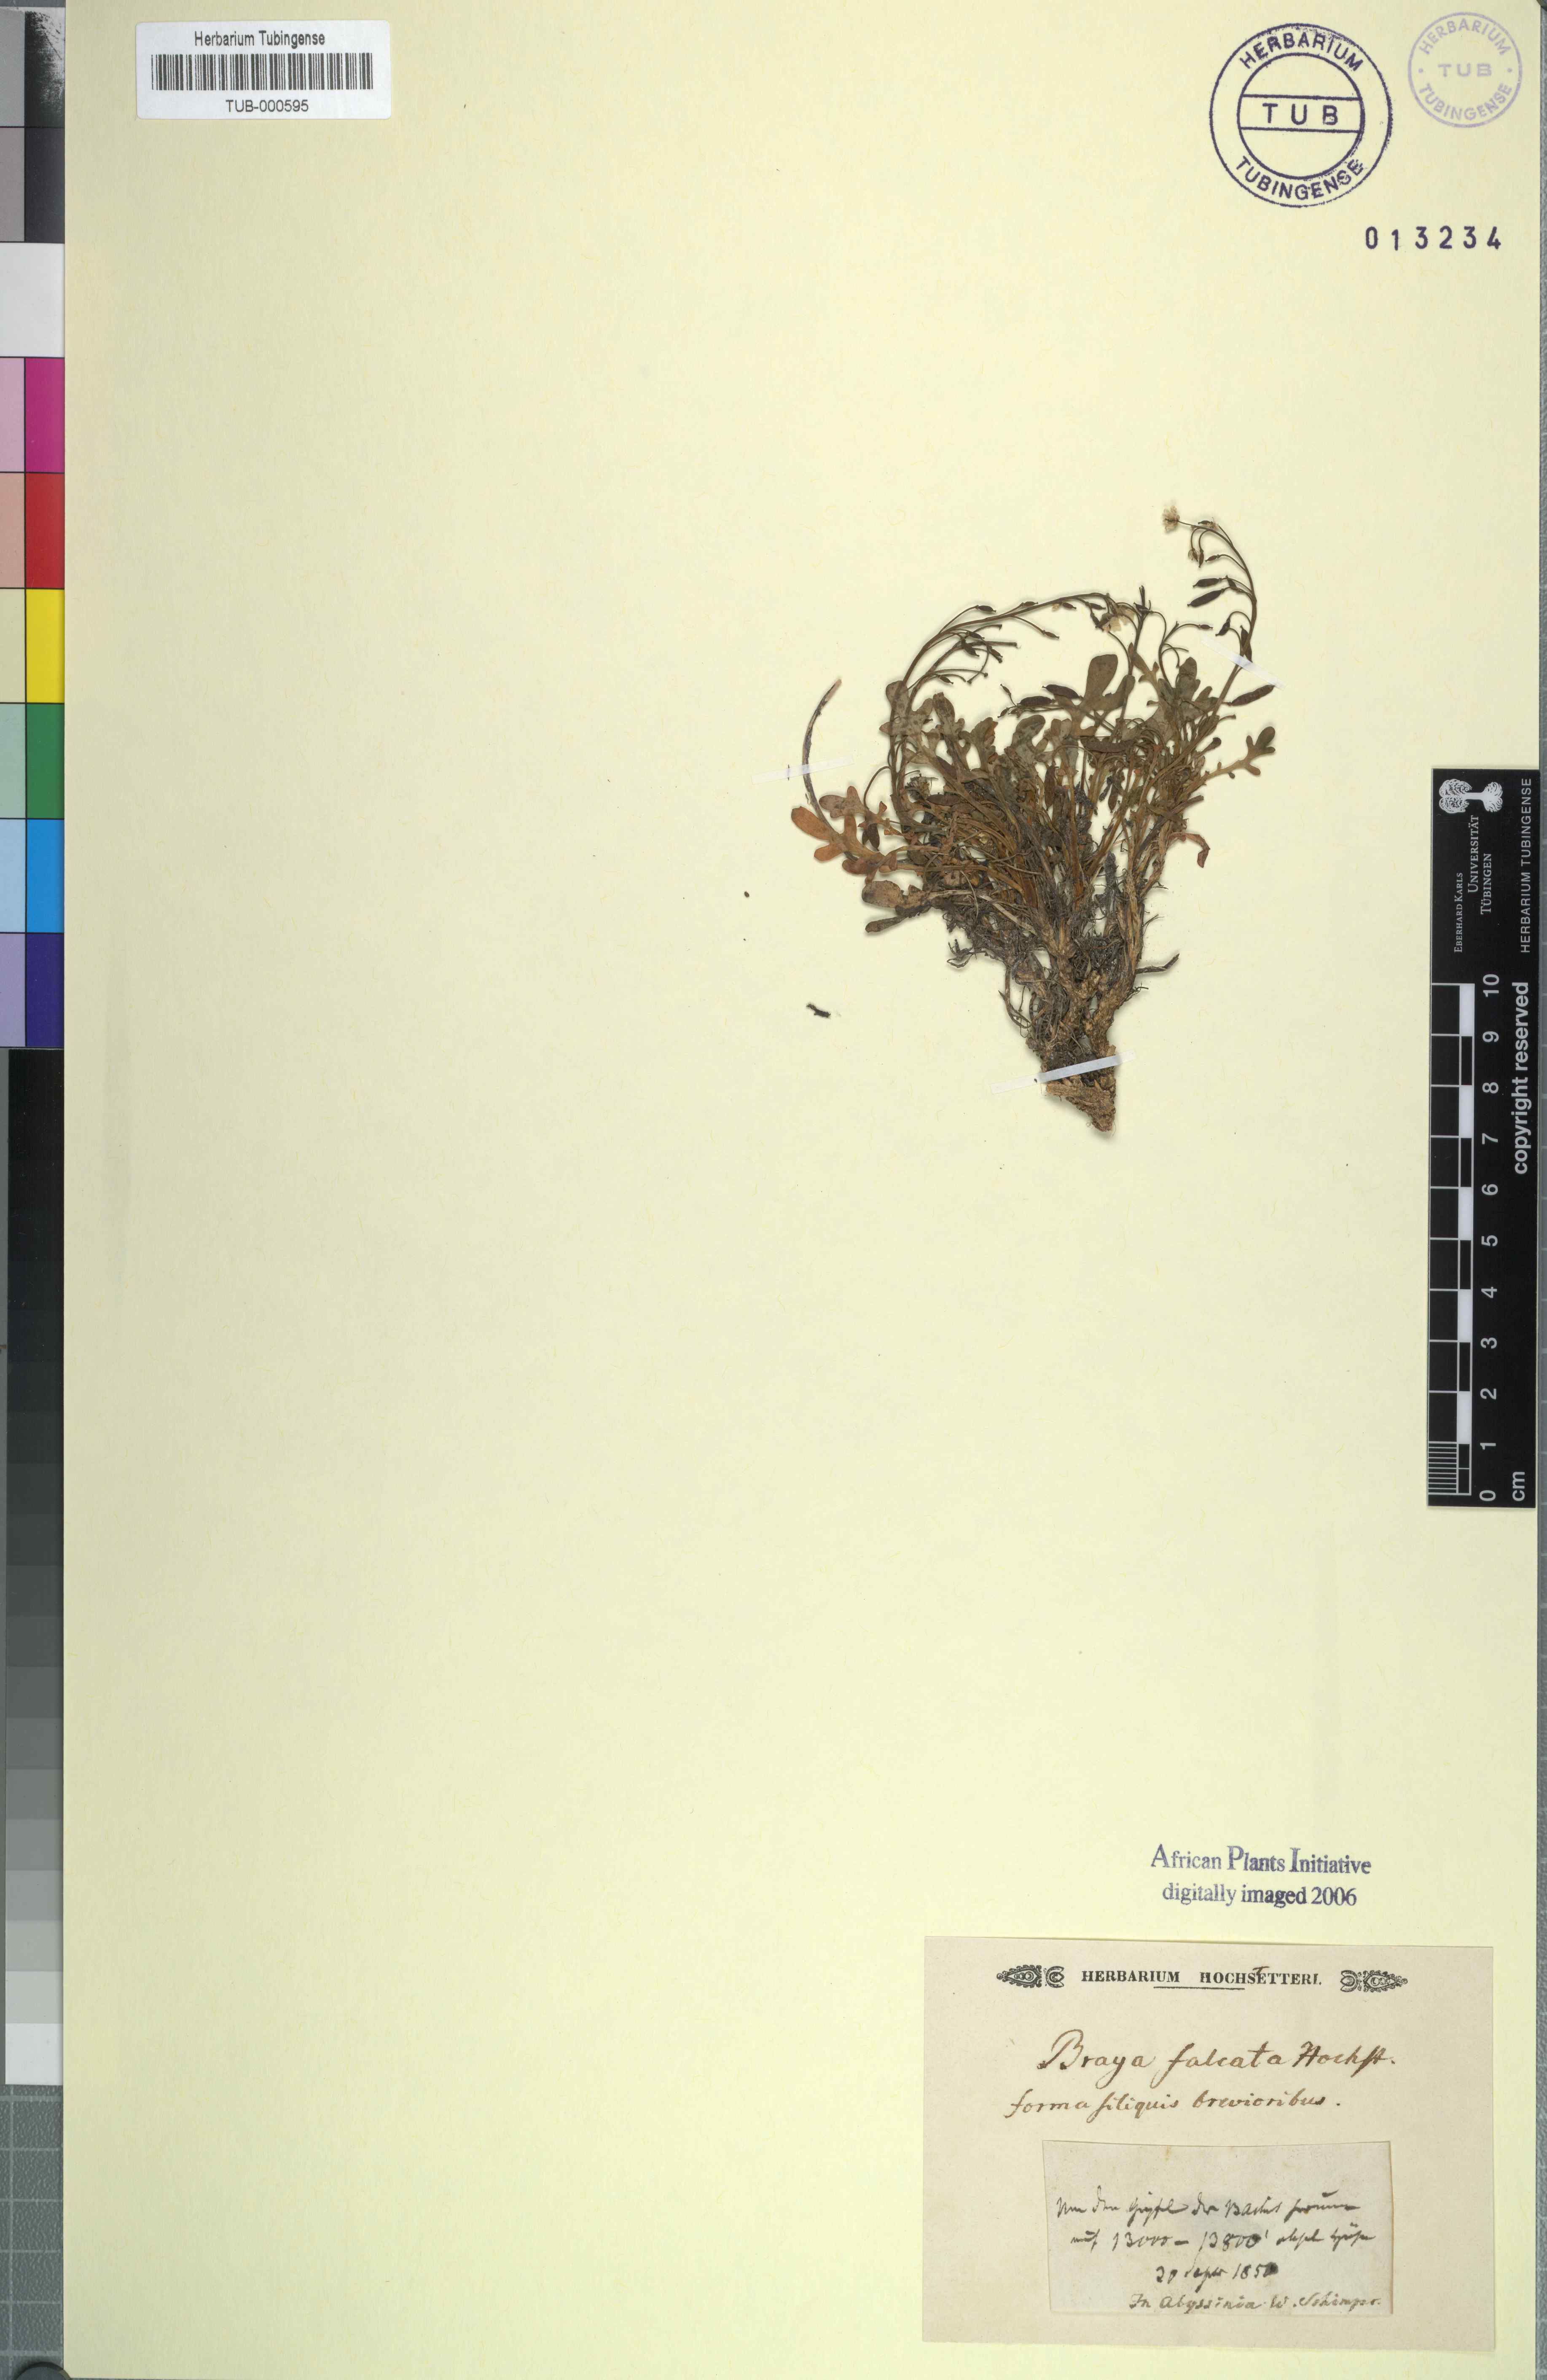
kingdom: Plantae
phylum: Tracheophyta
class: Magnoliopsida
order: Brassicales
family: Brassicaceae
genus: Oreophyton
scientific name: Oreophyton falcatum
